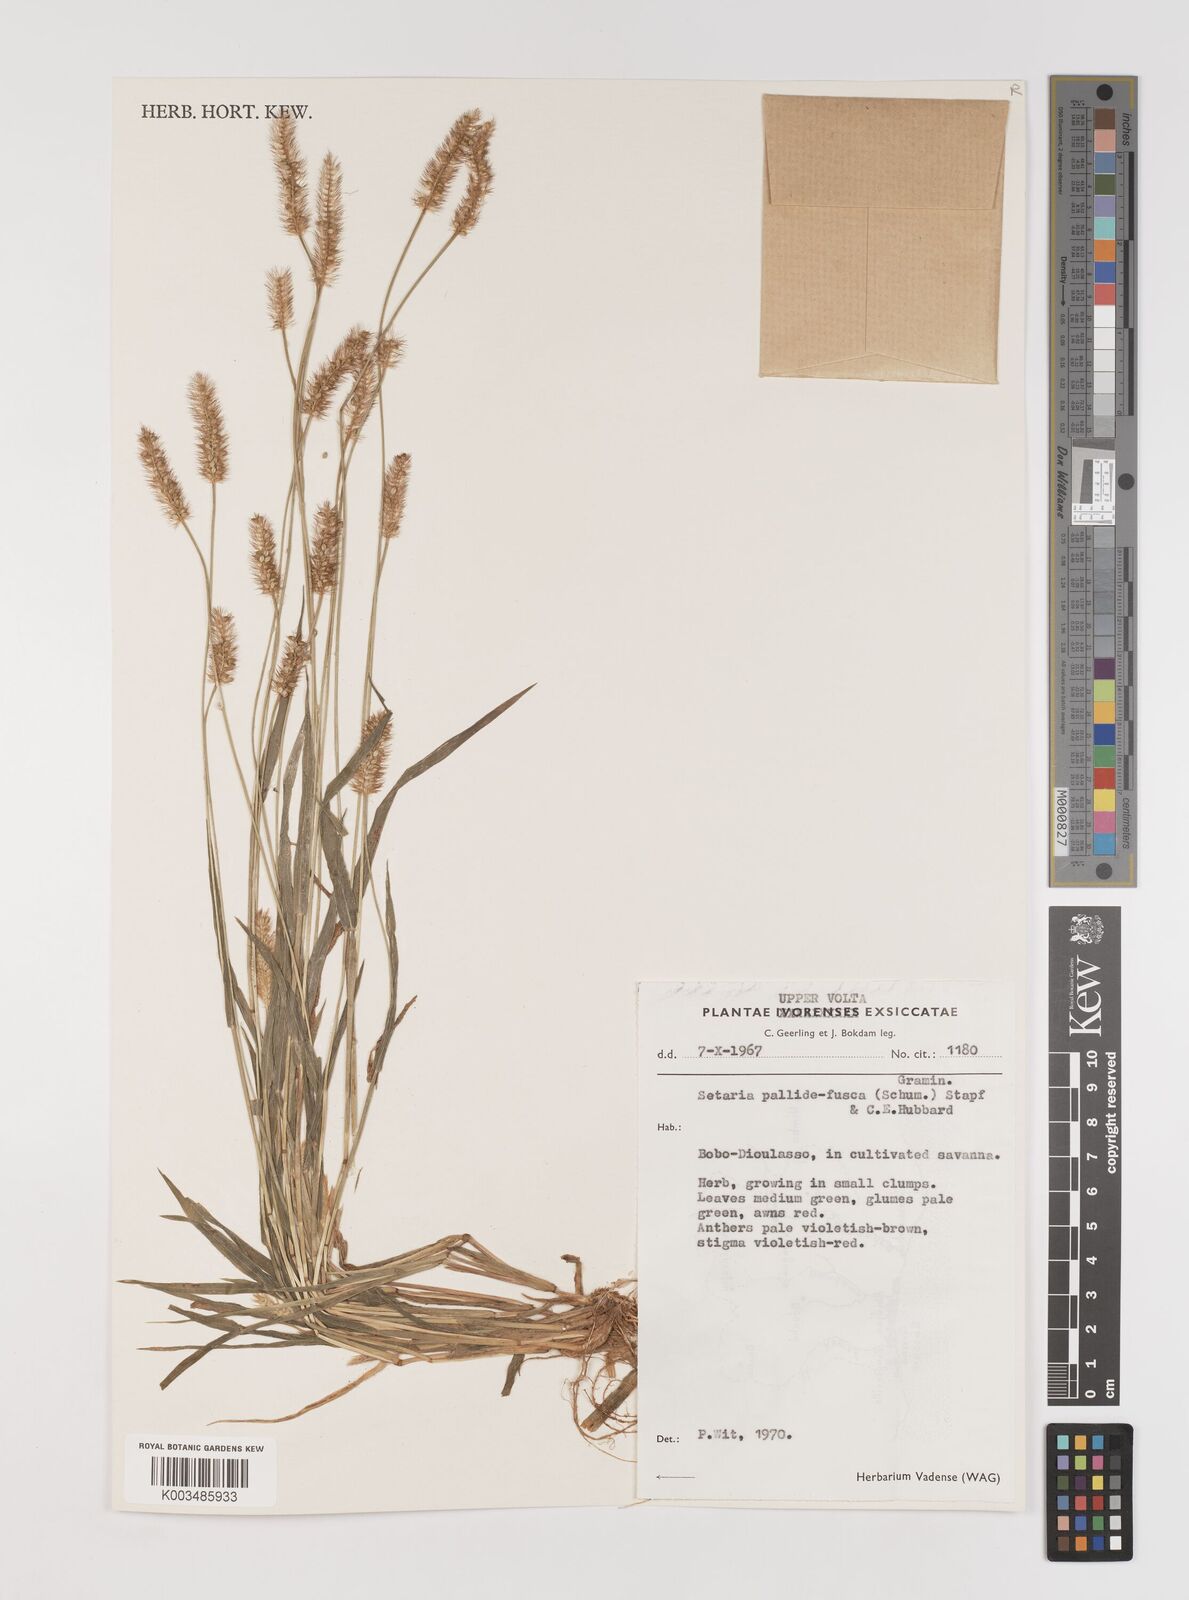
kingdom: Plantae
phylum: Tracheophyta
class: Liliopsida
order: Poales
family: Poaceae
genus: Setaria
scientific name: Setaria pumila
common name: Yellow bristle-grass
